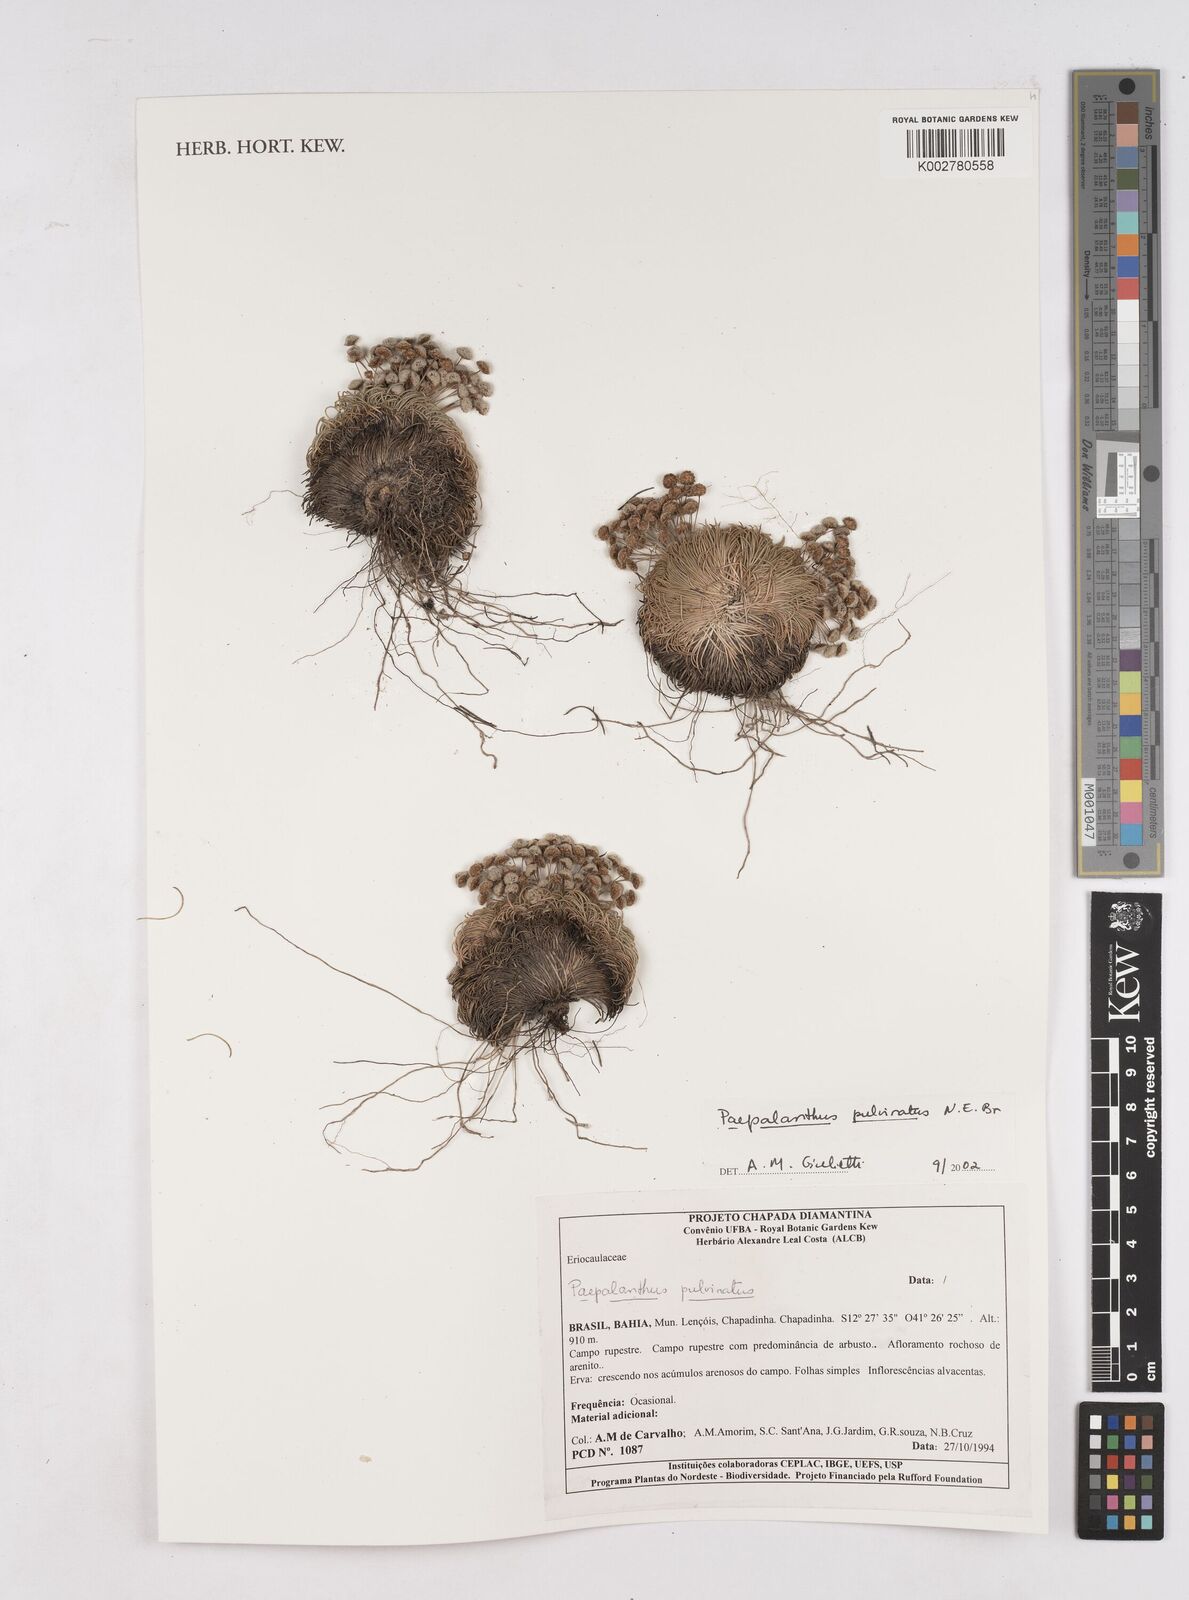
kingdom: Plantae
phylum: Tracheophyta
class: Liliopsida
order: Poales
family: Eriocaulaceae
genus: Paepalanthus
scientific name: Paepalanthus pulvinatus
